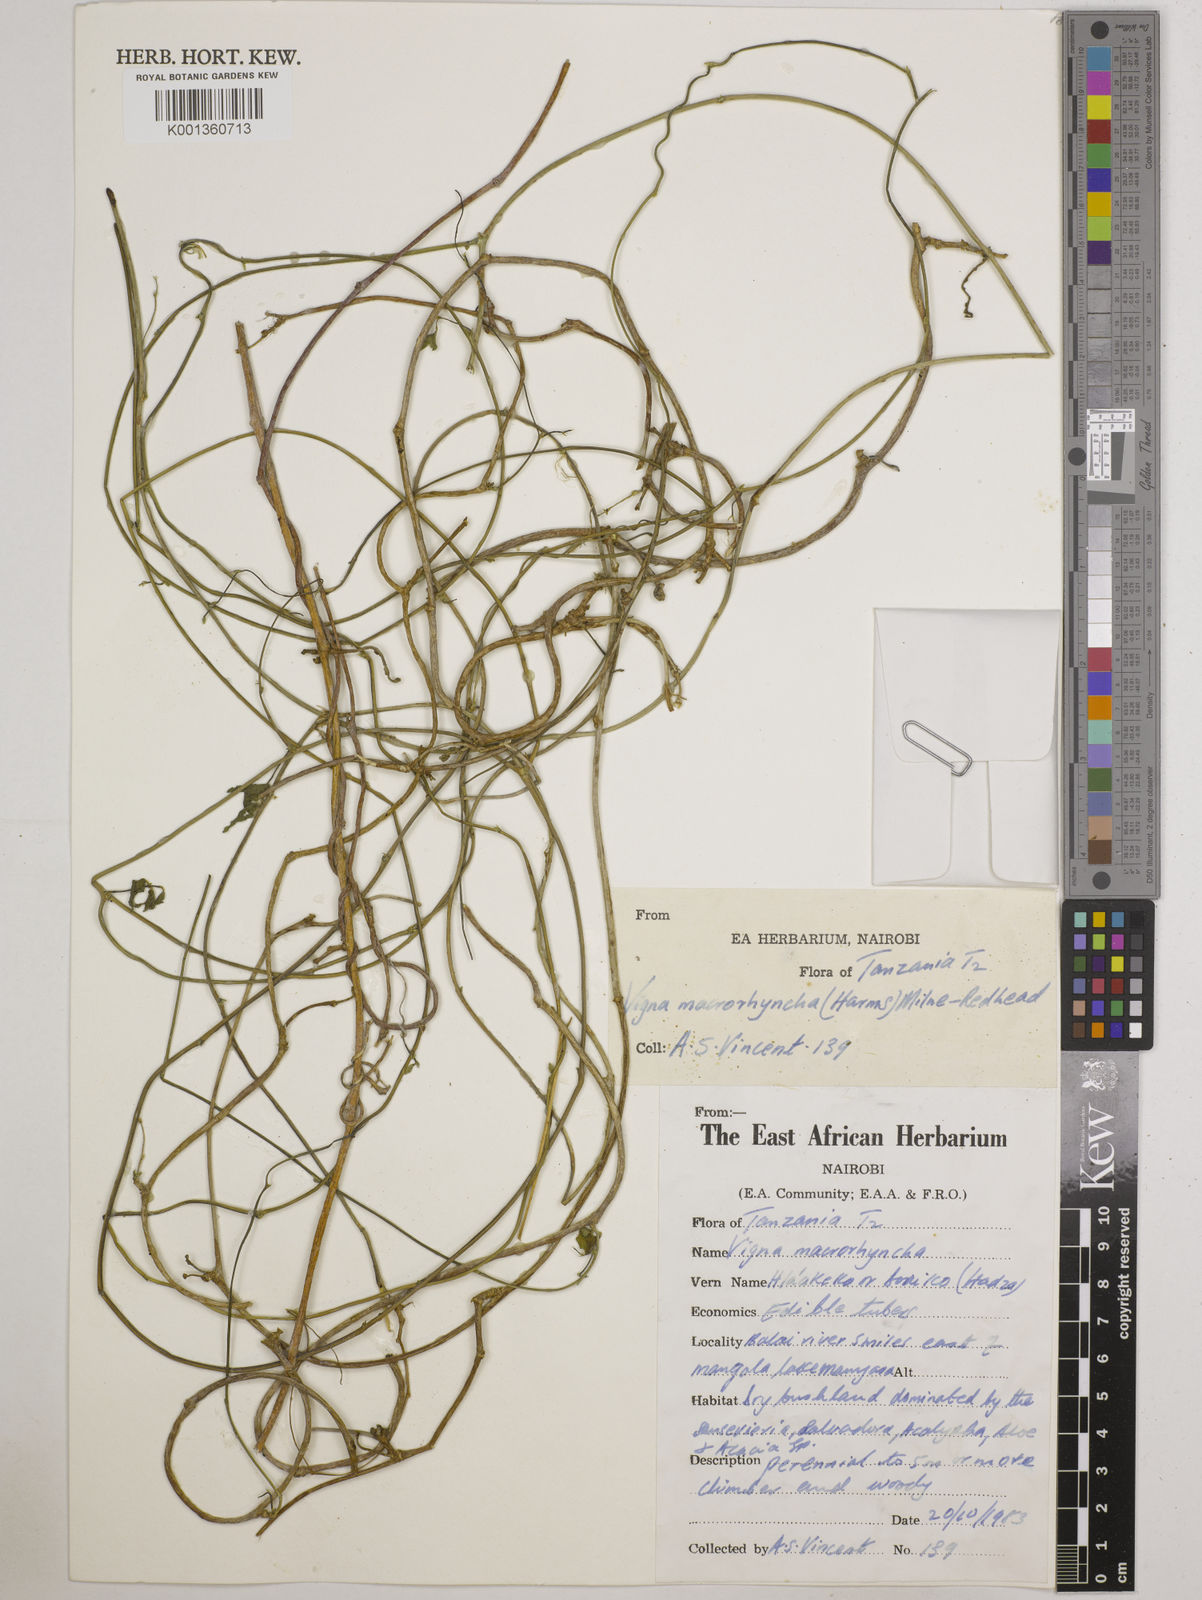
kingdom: Plantae
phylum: Tracheophyta
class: Magnoliopsida
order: Fabales
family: Fabaceae
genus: Wajira
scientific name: Wajira grahamiana
